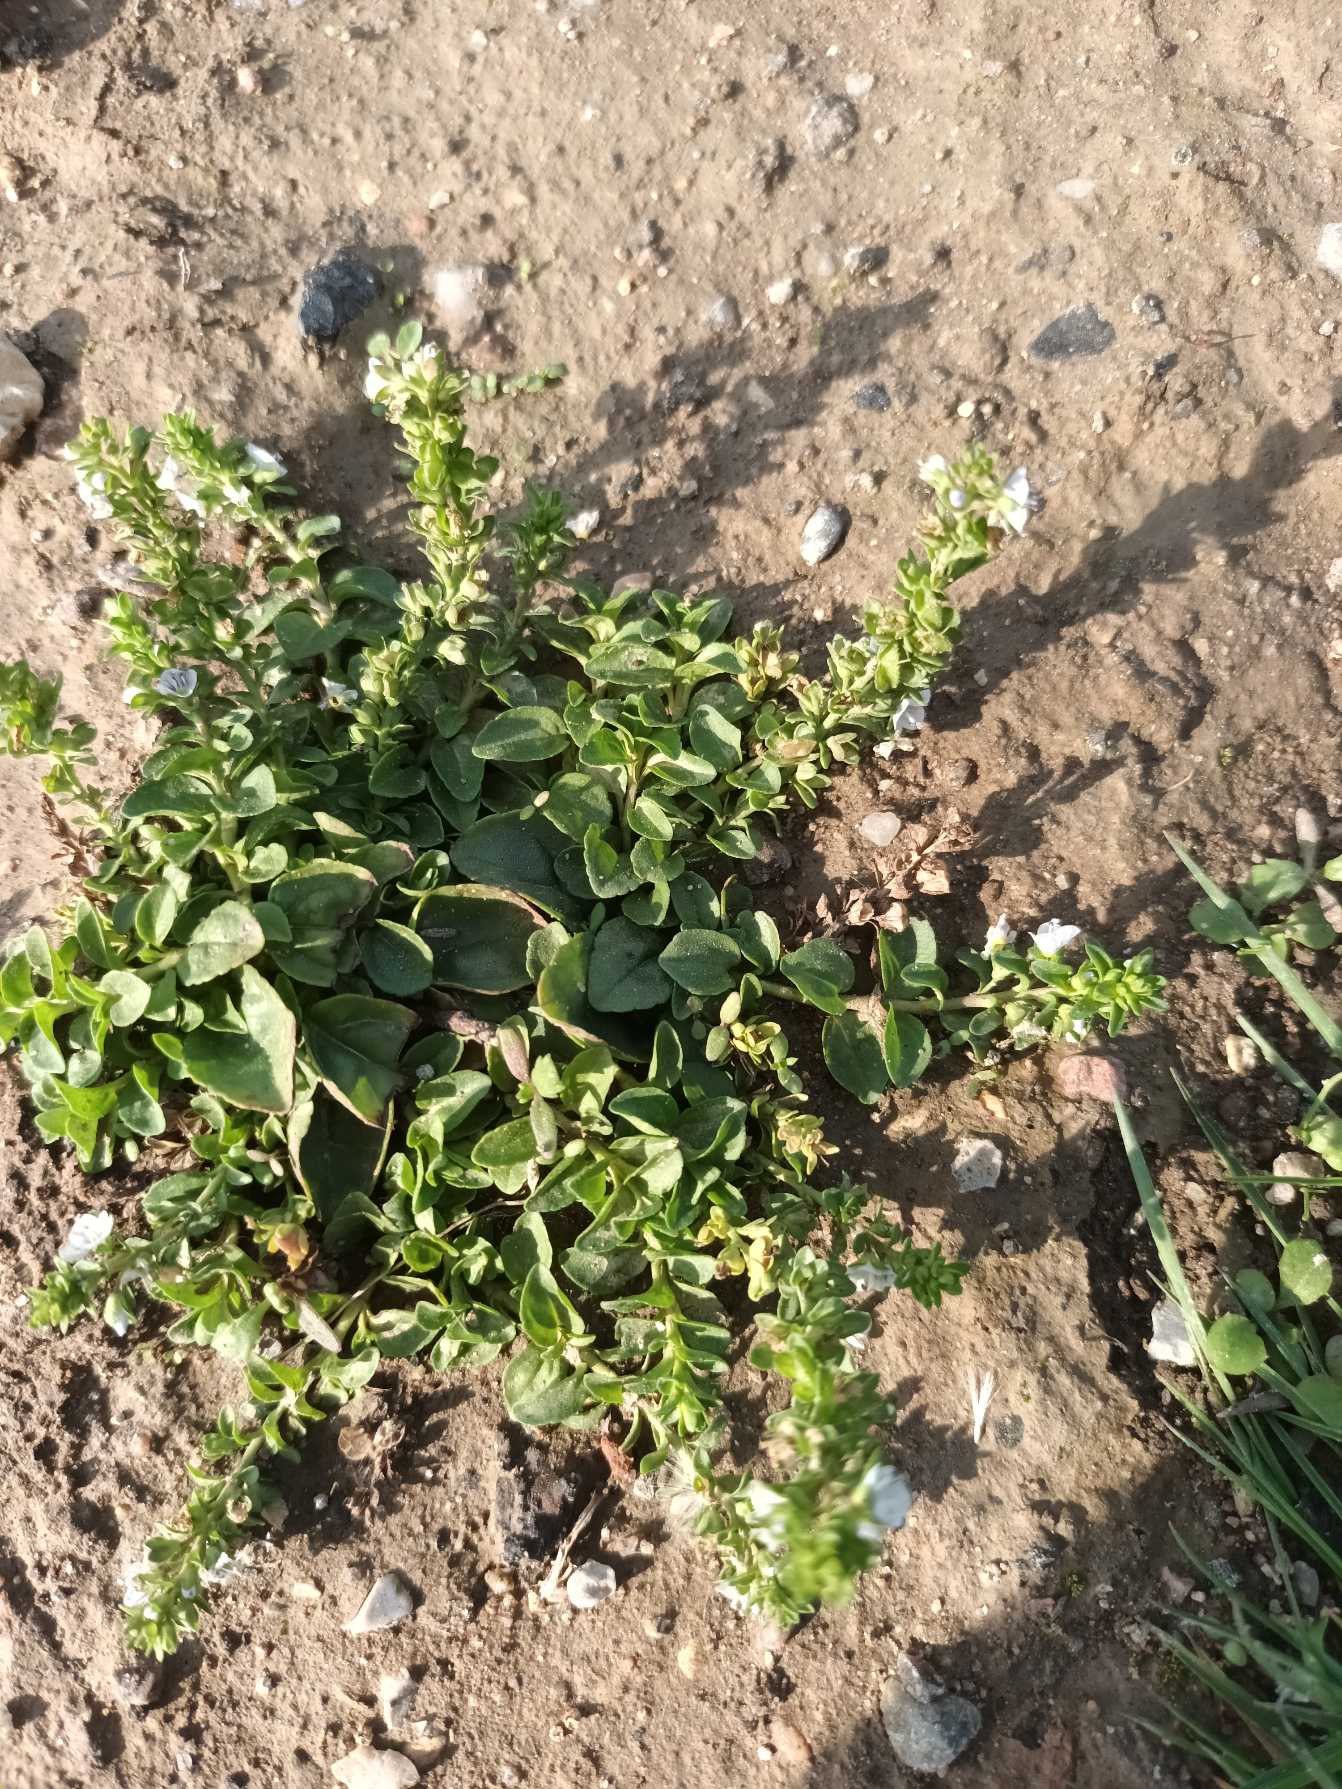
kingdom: Plantae
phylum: Tracheophyta
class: Magnoliopsida
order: Lamiales
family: Plantaginaceae
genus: Veronica
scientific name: Veronica serpyllifolia
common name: Glat ærenpris
